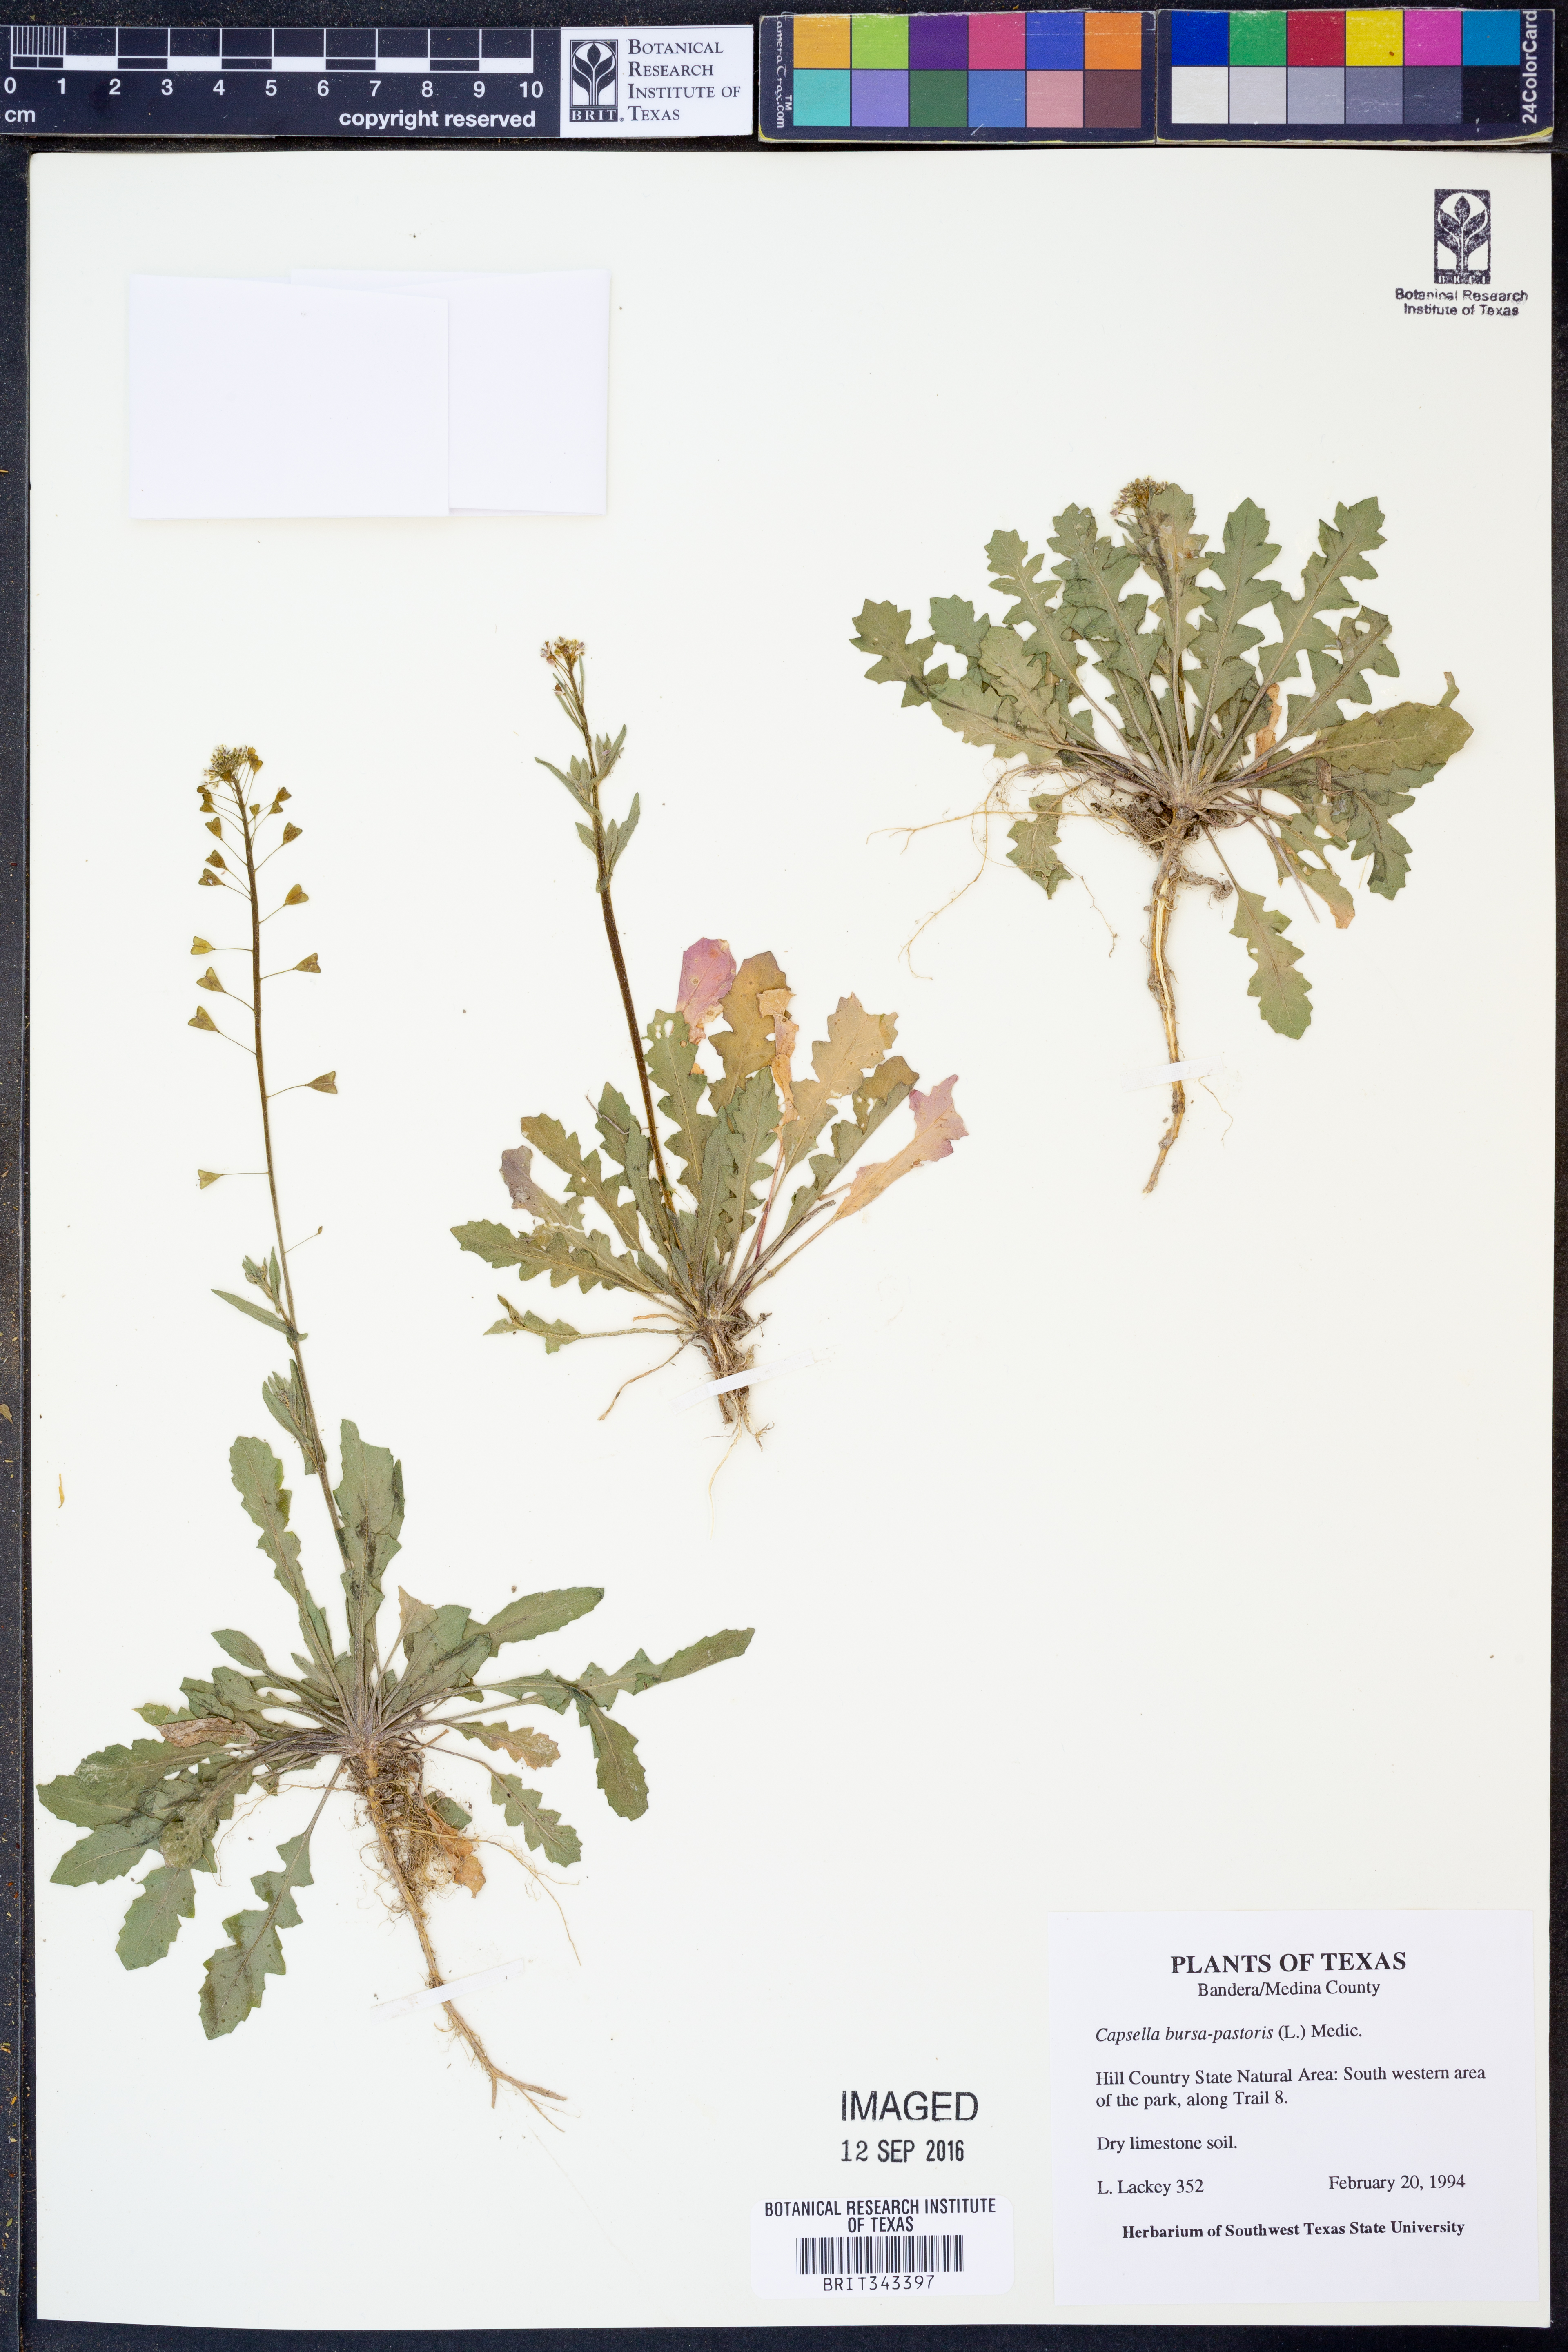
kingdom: Plantae
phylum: Tracheophyta
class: Magnoliopsida
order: Brassicales
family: Brassicaceae
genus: Capsella
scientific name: Capsella bursa-pastoris
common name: Shepherd's purse
